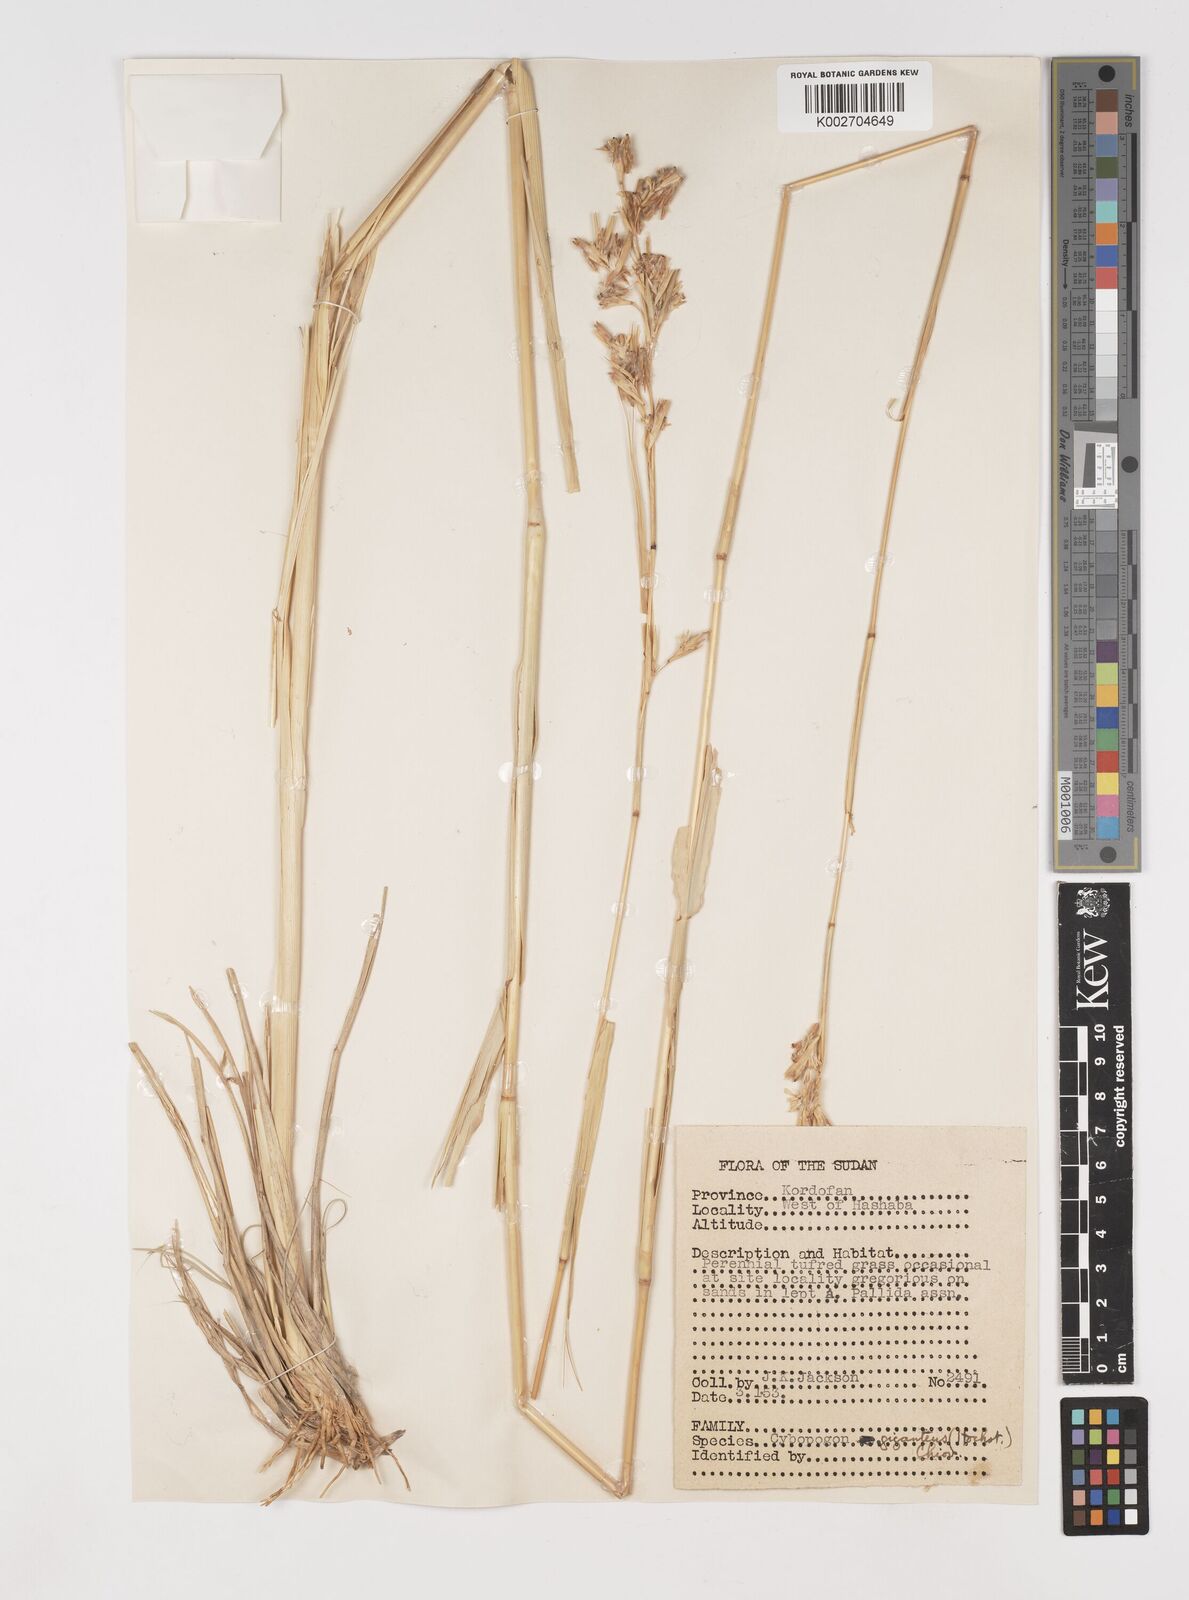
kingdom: Plantae
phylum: Tracheophyta
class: Liliopsida
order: Poales
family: Poaceae
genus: Cymbopogon
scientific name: Cymbopogon giganteus
